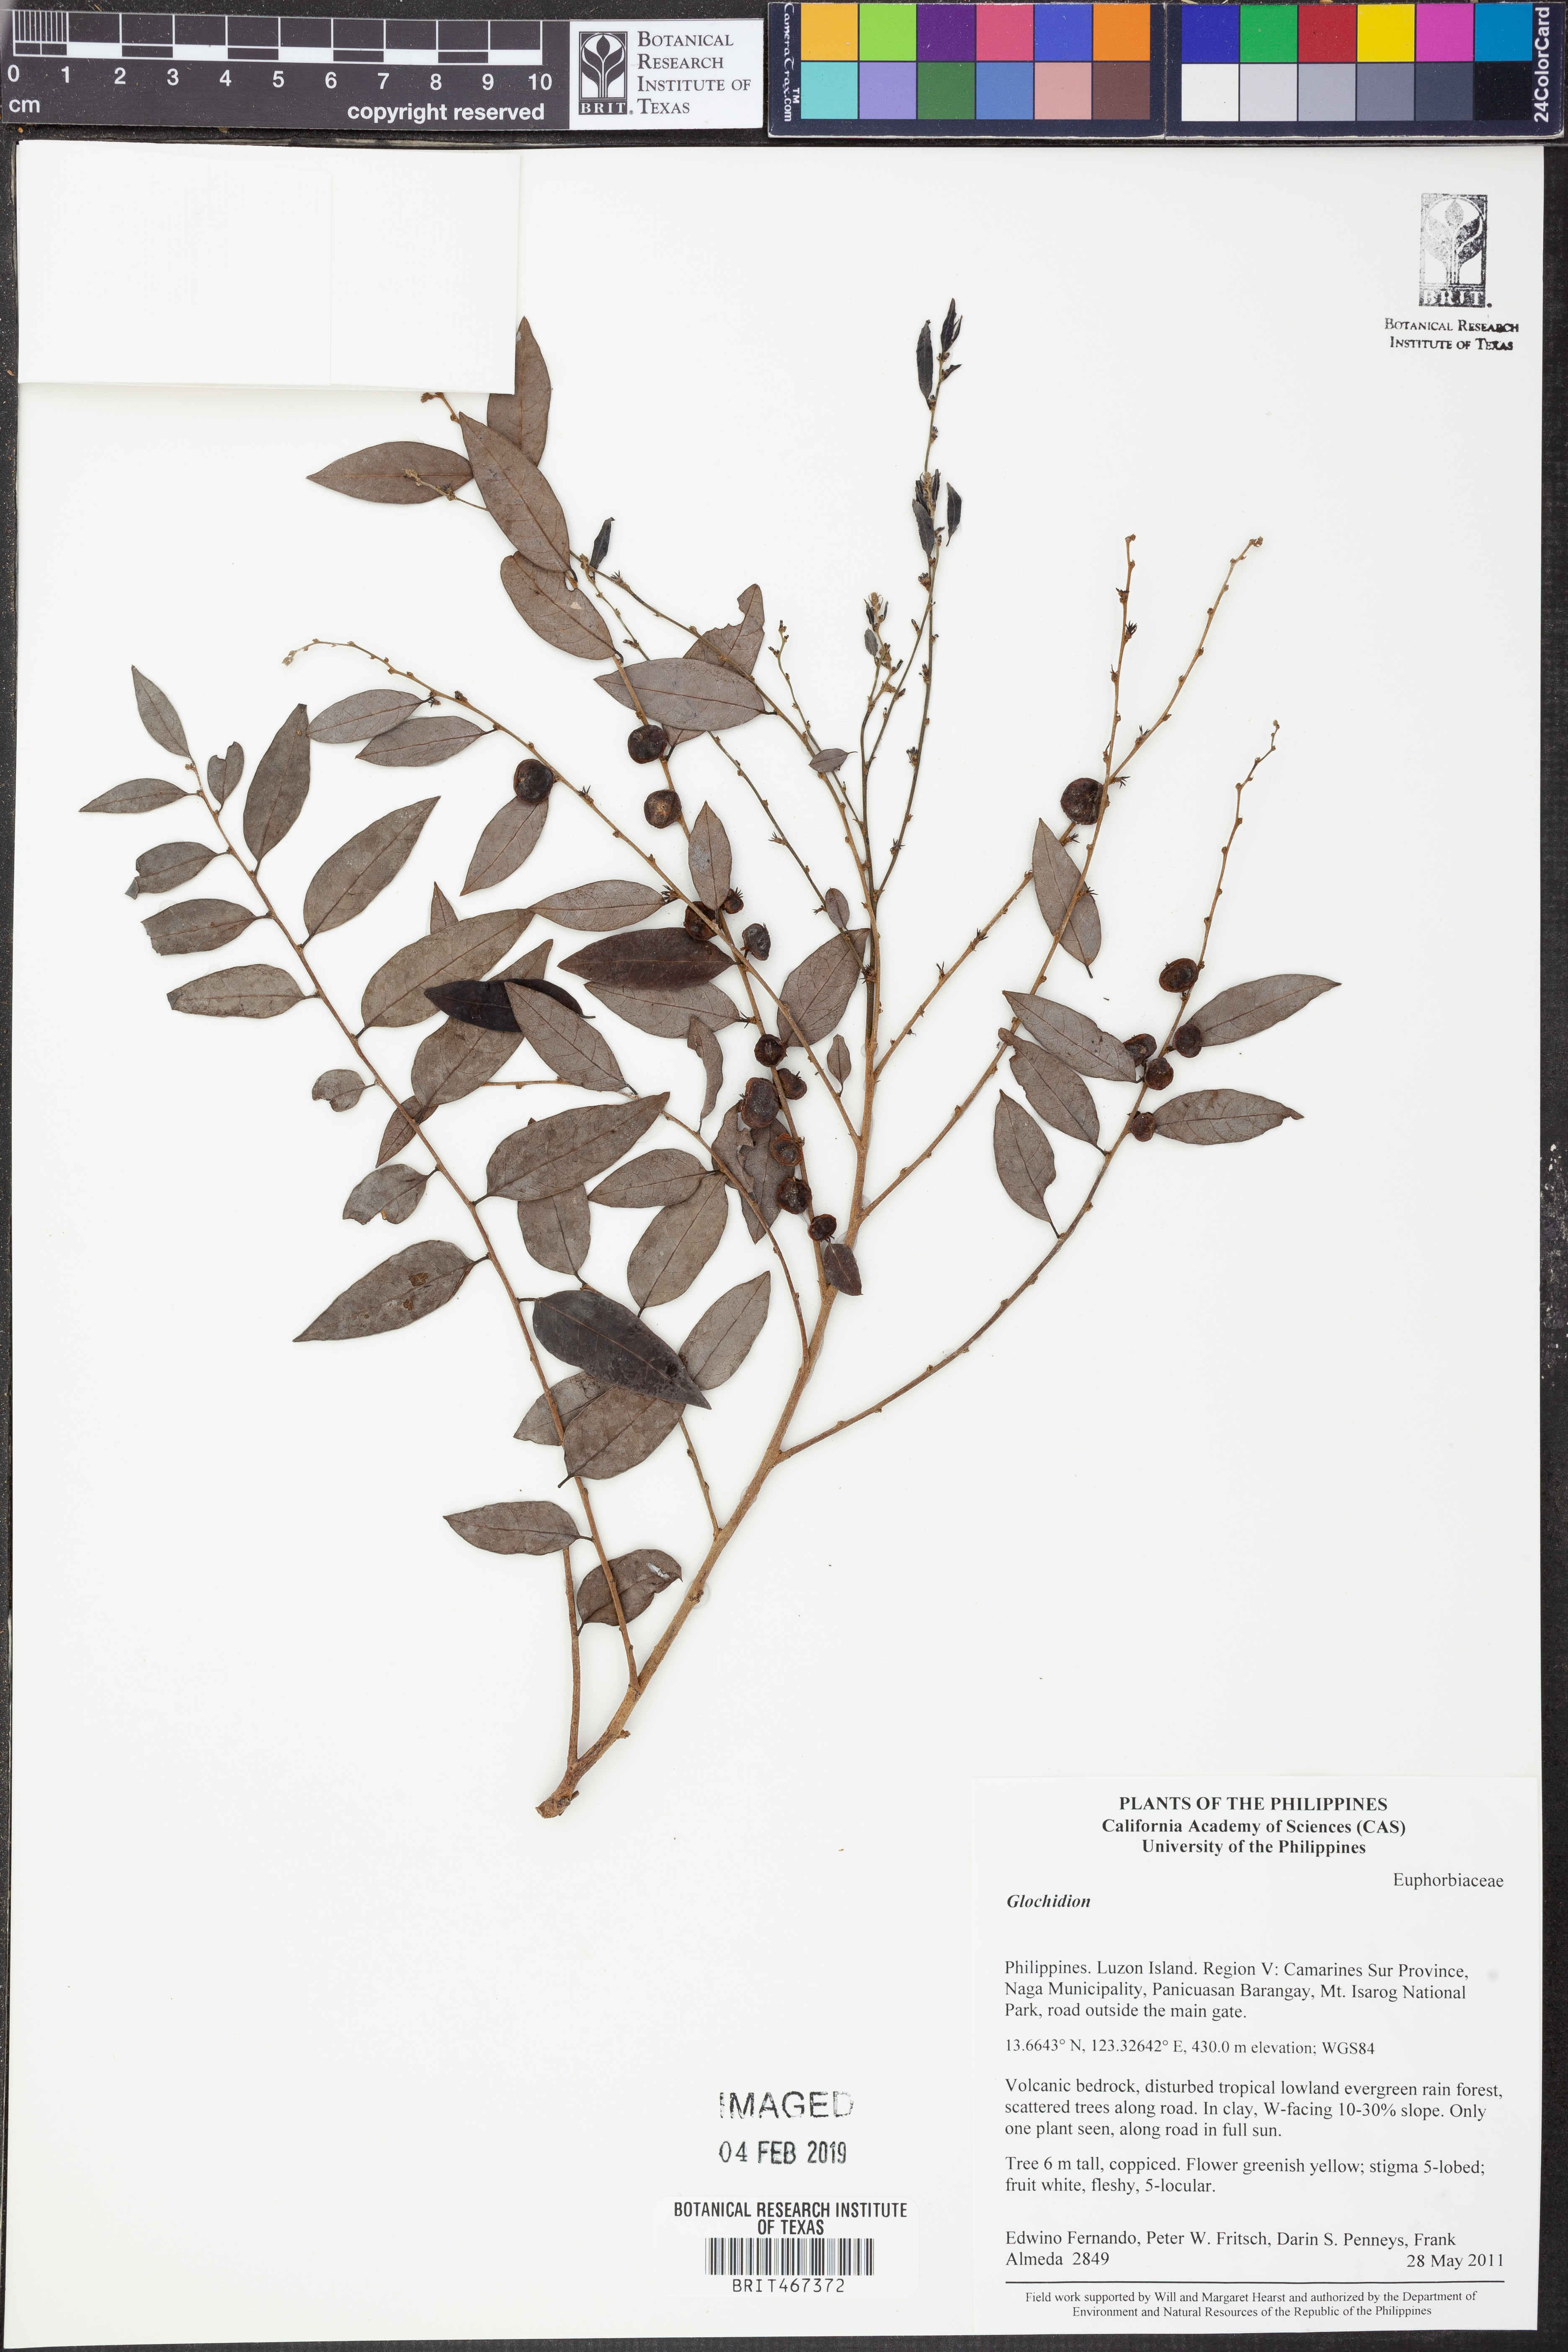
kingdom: Plantae
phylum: Tracheophyta
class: Magnoliopsida
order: Malpighiales
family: Phyllanthaceae
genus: Glochidion
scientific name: Glochidion
